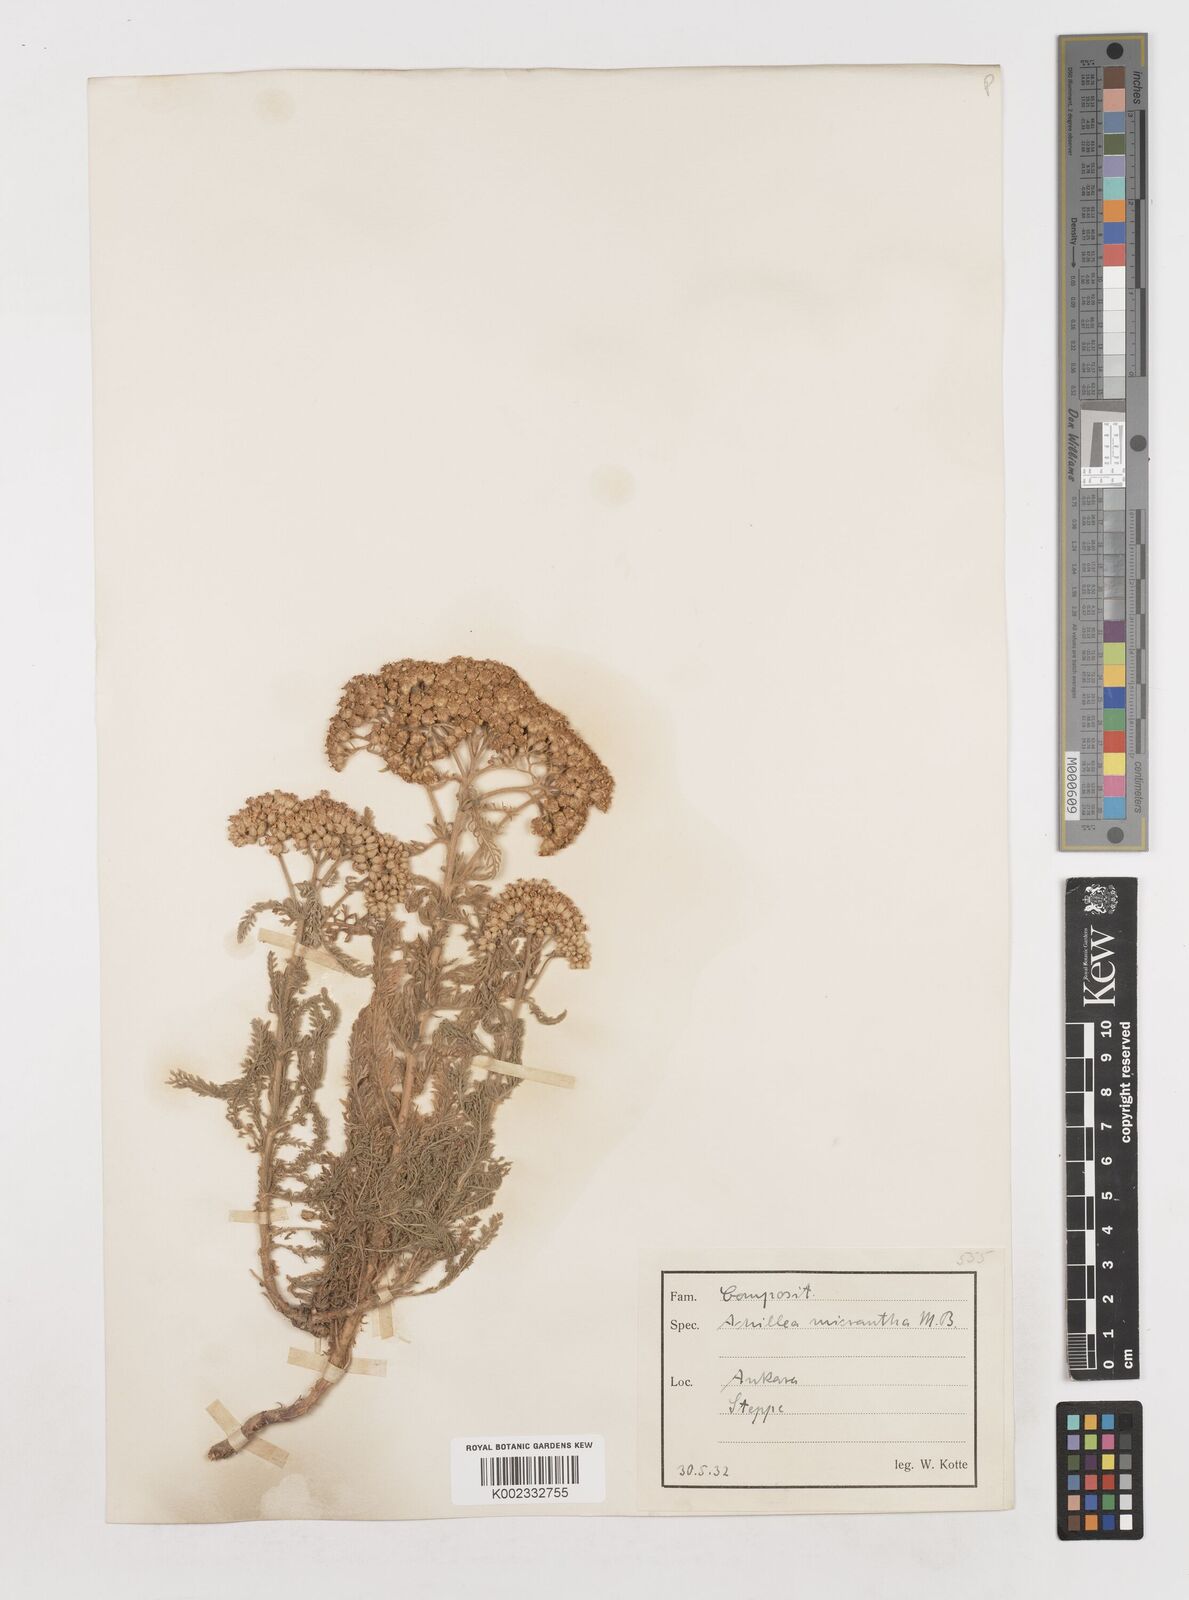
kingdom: Plantae
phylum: Tracheophyta
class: Magnoliopsida
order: Asterales
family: Asteraceae
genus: Achillea
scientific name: Achillea micrantha
